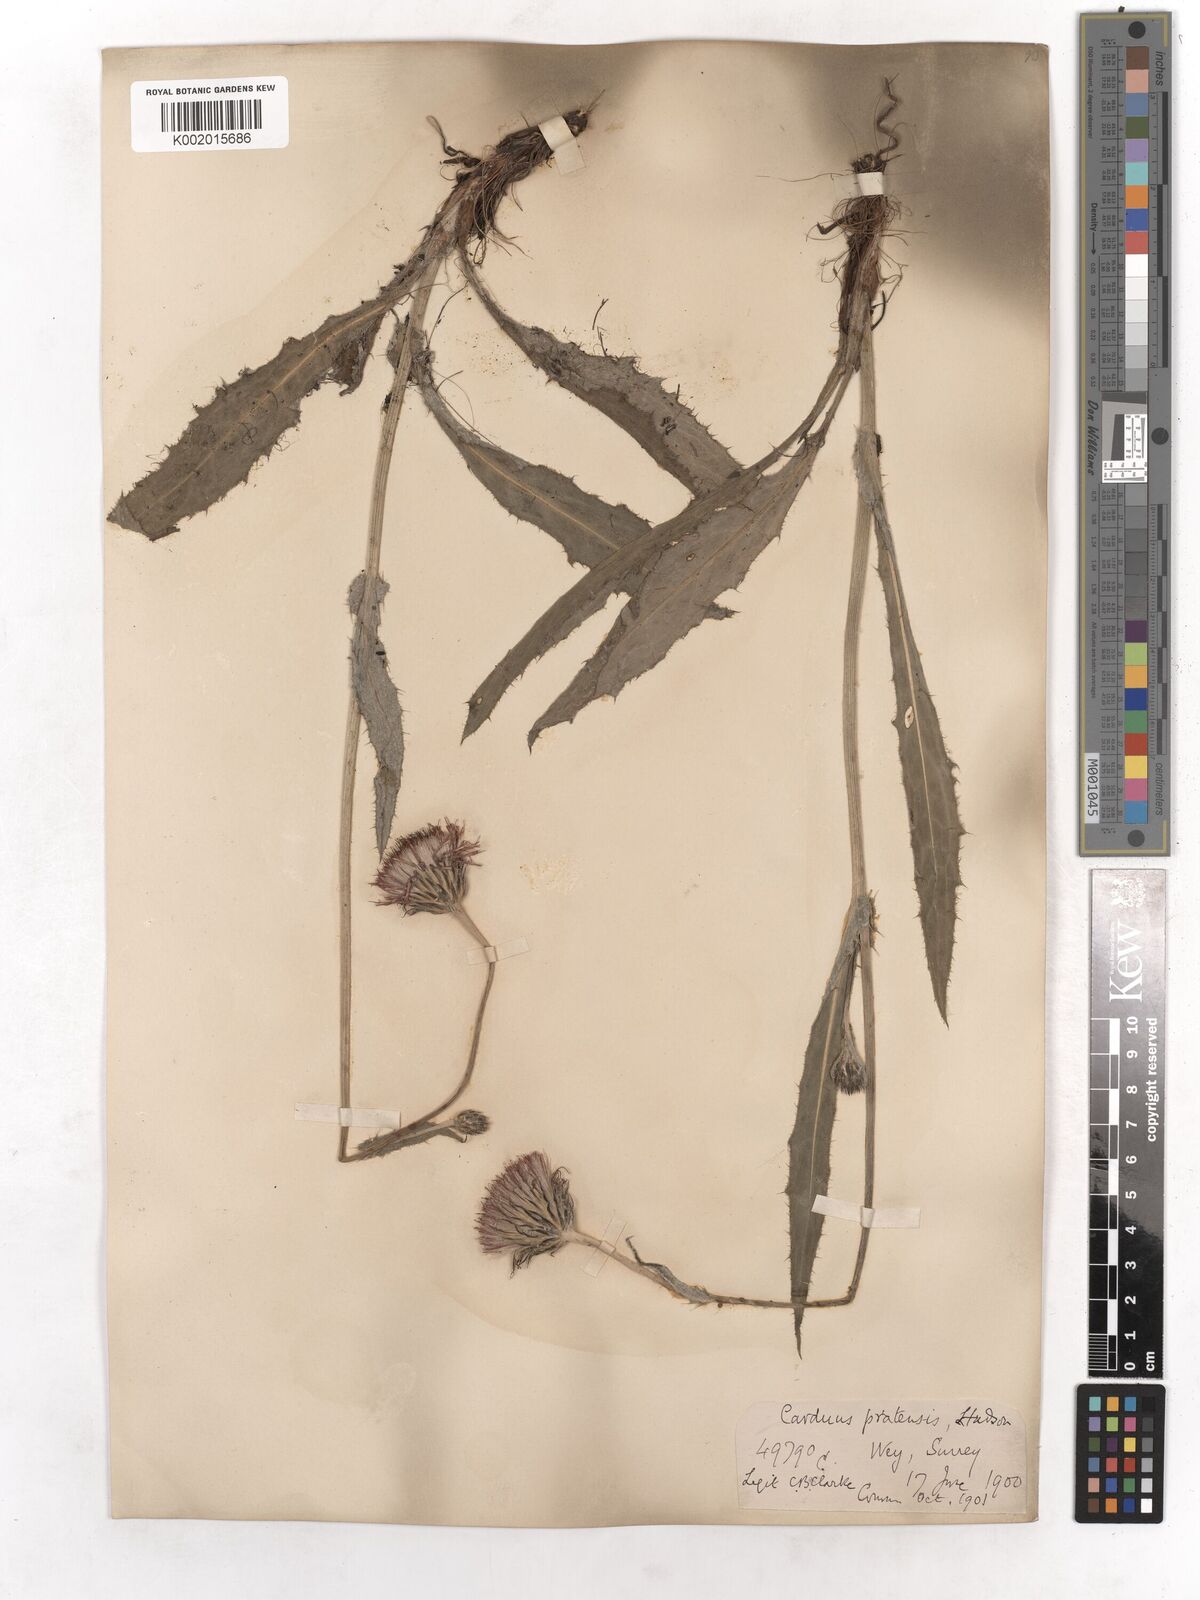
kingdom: Plantae
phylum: Tracheophyta
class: Magnoliopsida
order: Asterales
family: Asteraceae
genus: Cirsium
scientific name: Cirsium dissectum
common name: Meadow thistle
